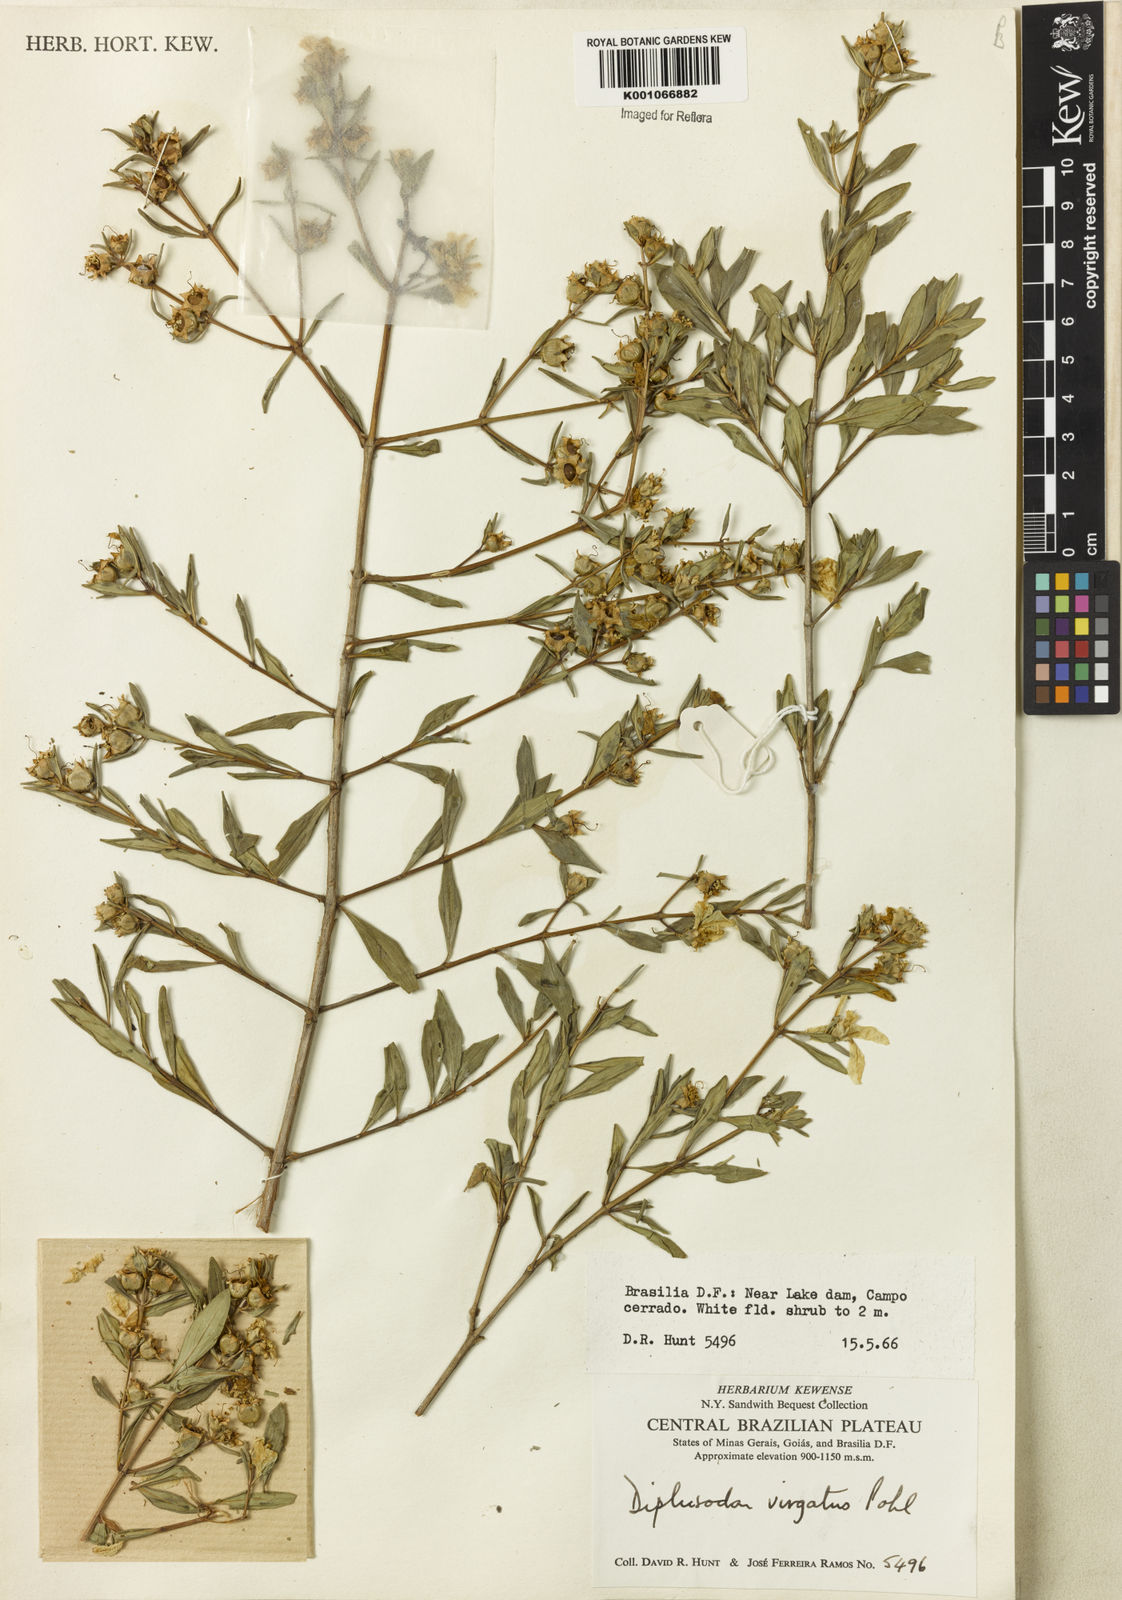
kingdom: Plantae
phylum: Tracheophyta
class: Magnoliopsida
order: Myrtales
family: Lythraceae
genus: Diplusodon
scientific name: Diplusodon virgatus
